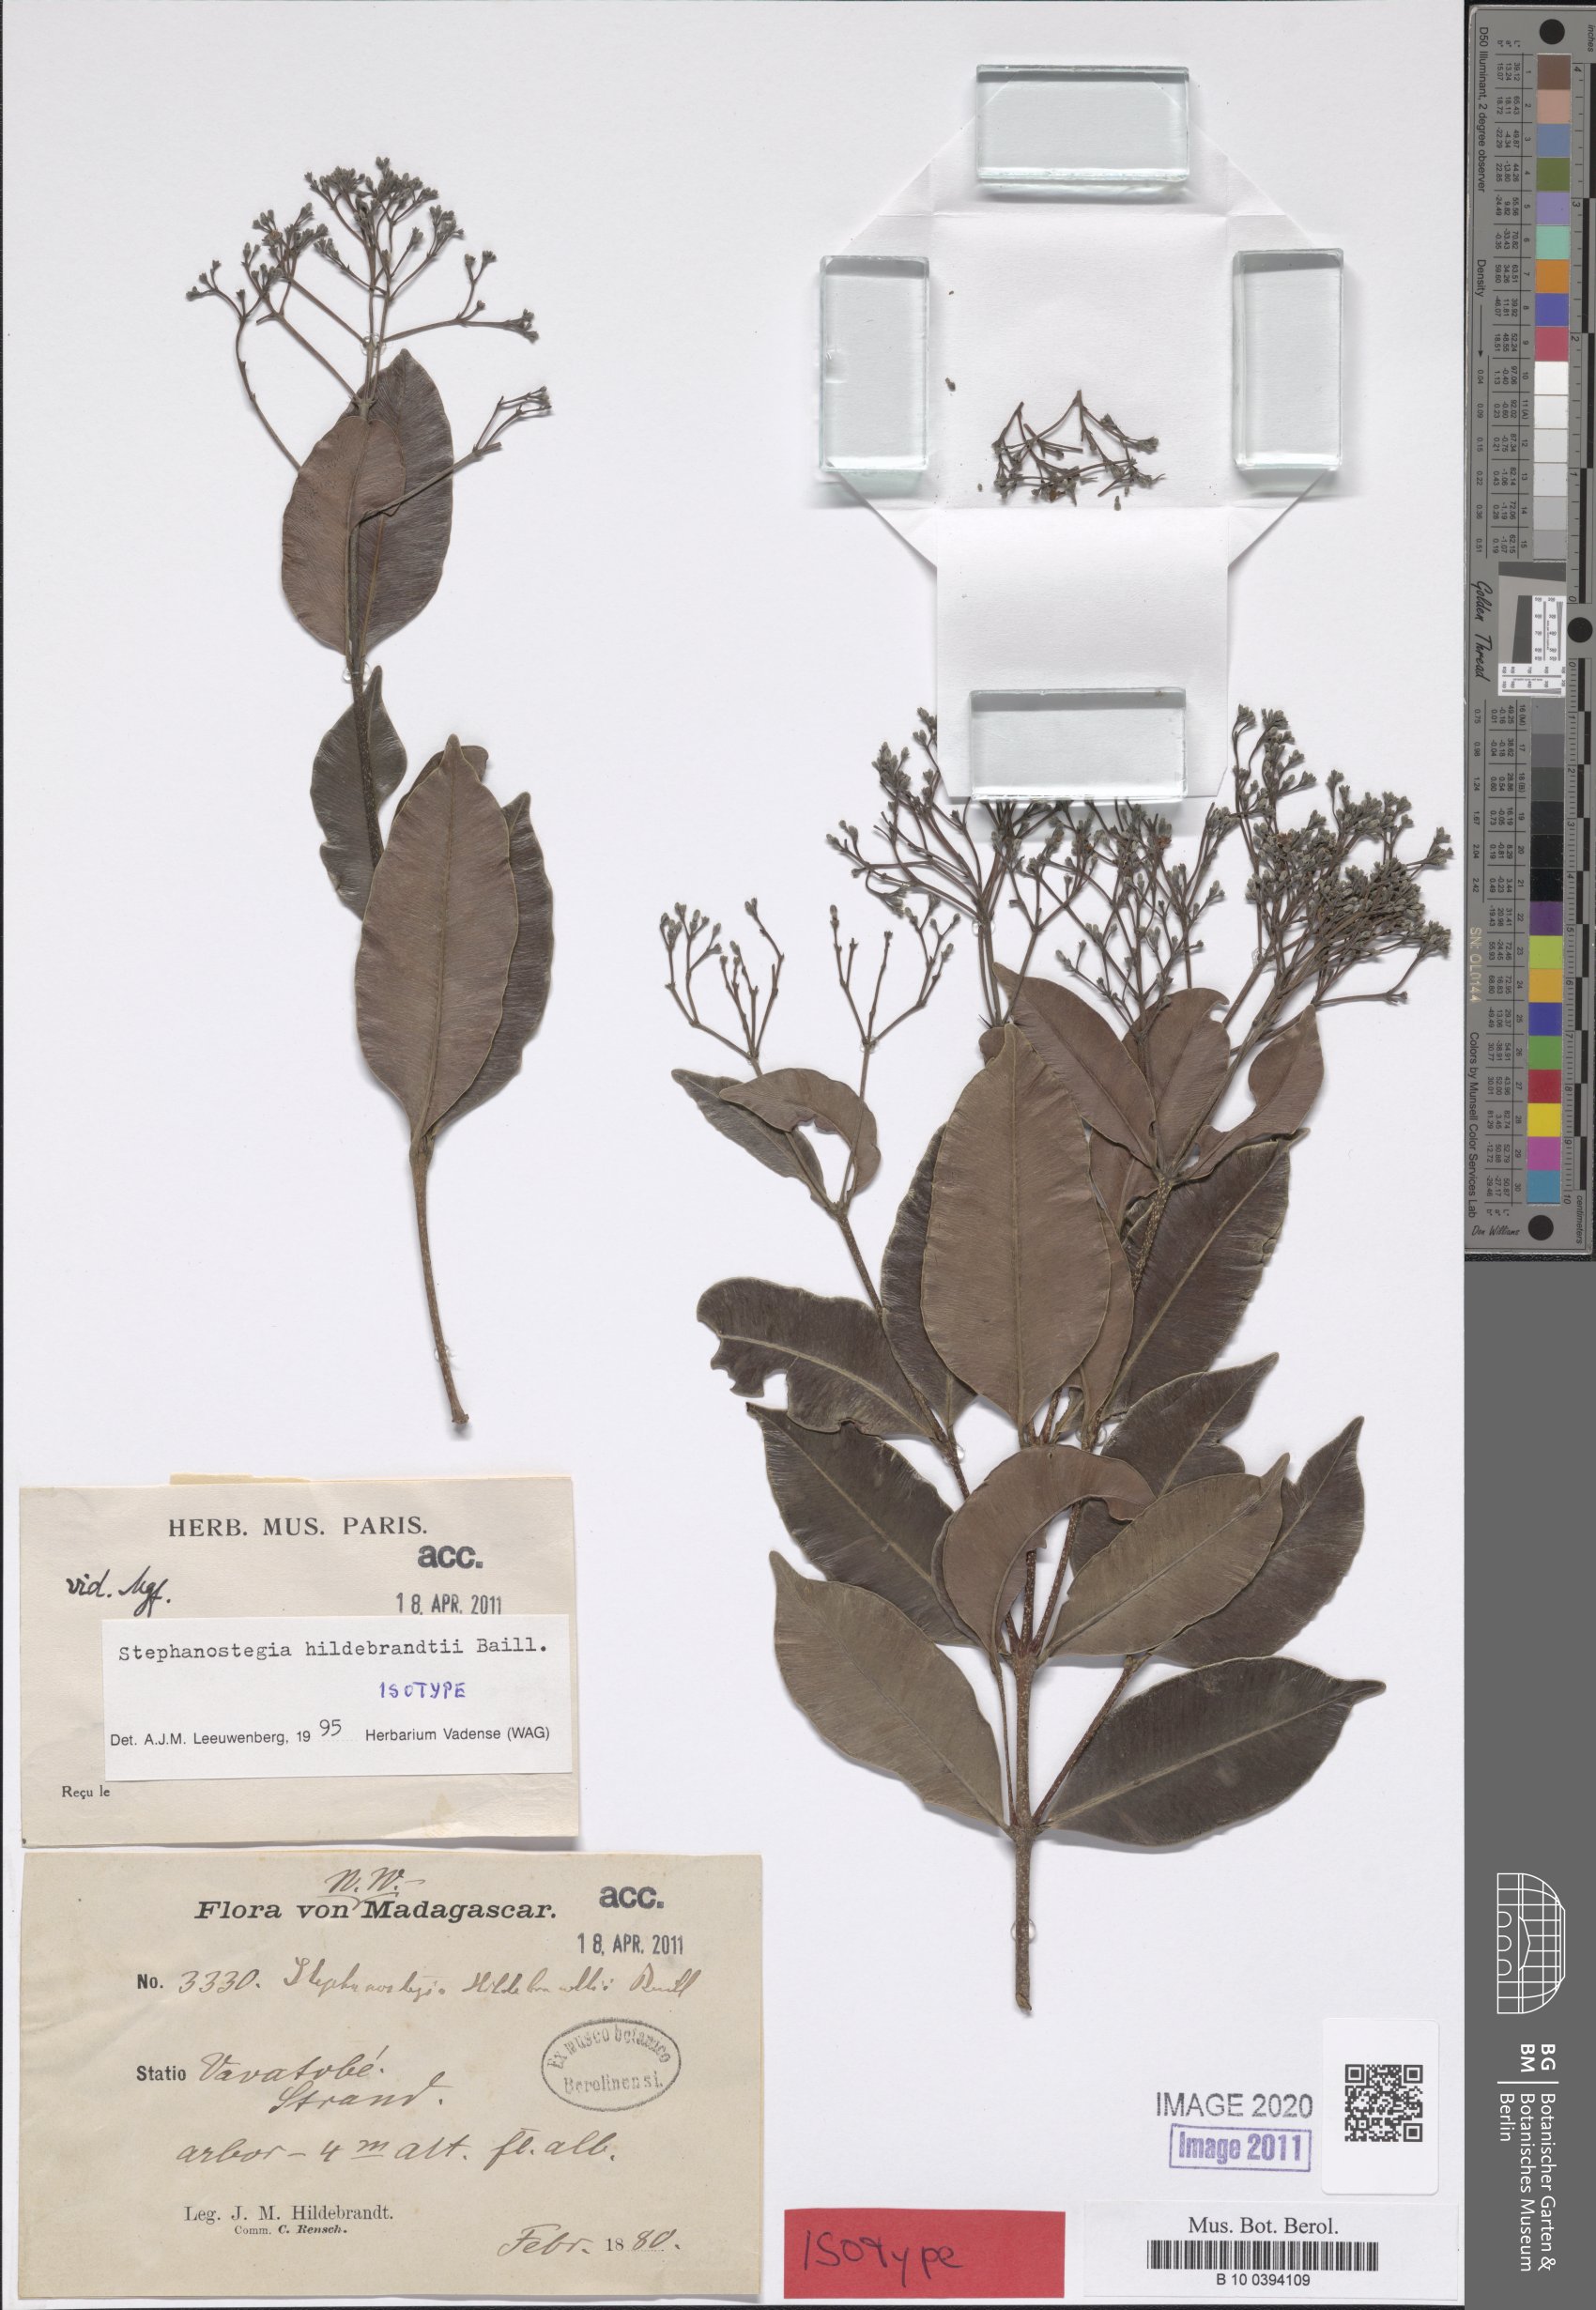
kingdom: Plantae
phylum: Tracheophyta
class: Magnoliopsida
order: Gentianales
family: Apocynaceae
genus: Stephanostegia
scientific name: Stephanostegia hildebrandtii
